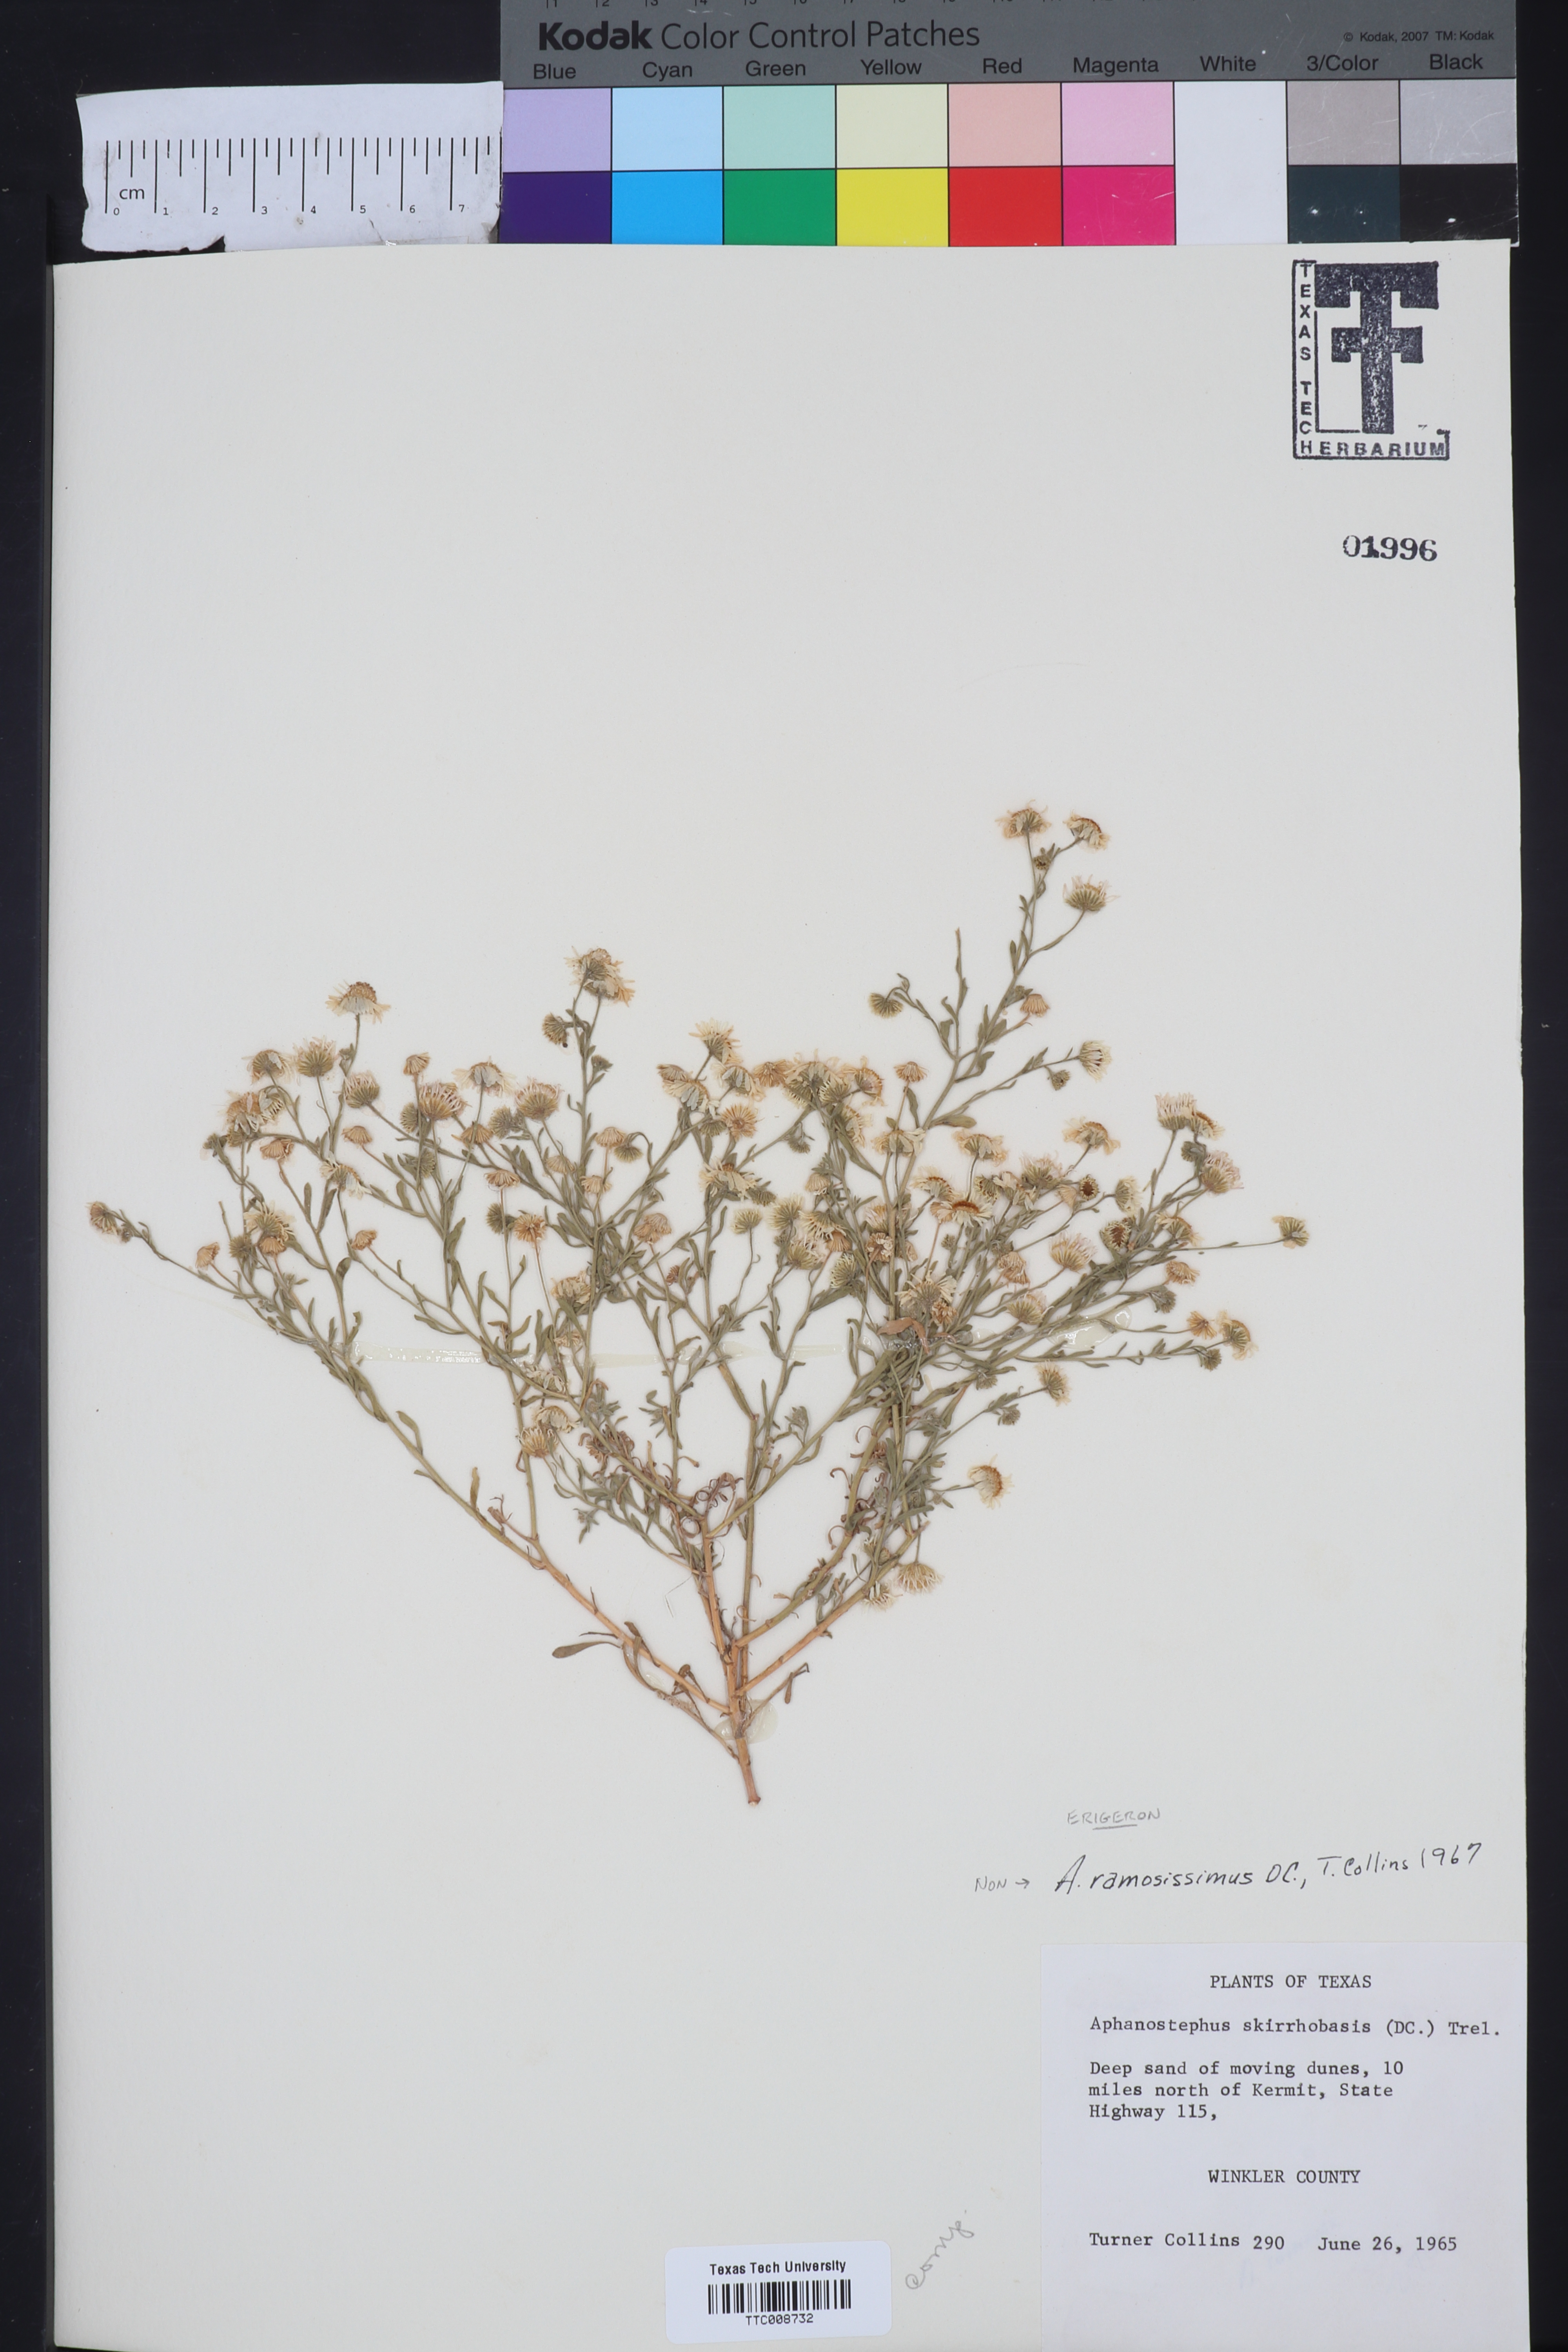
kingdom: Plantae
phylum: Tracheophyta
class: Magnoliopsida
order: Asterales
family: Asteraceae
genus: Erigeron
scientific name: Erigeron
